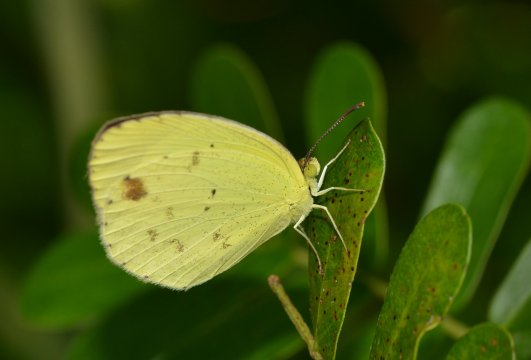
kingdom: Animalia
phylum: Arthropoda
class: Insecta
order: Lepidoptera
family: Pieridae
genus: Pyrisitia
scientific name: Pyrisitia nise
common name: Mimosa Yellow
